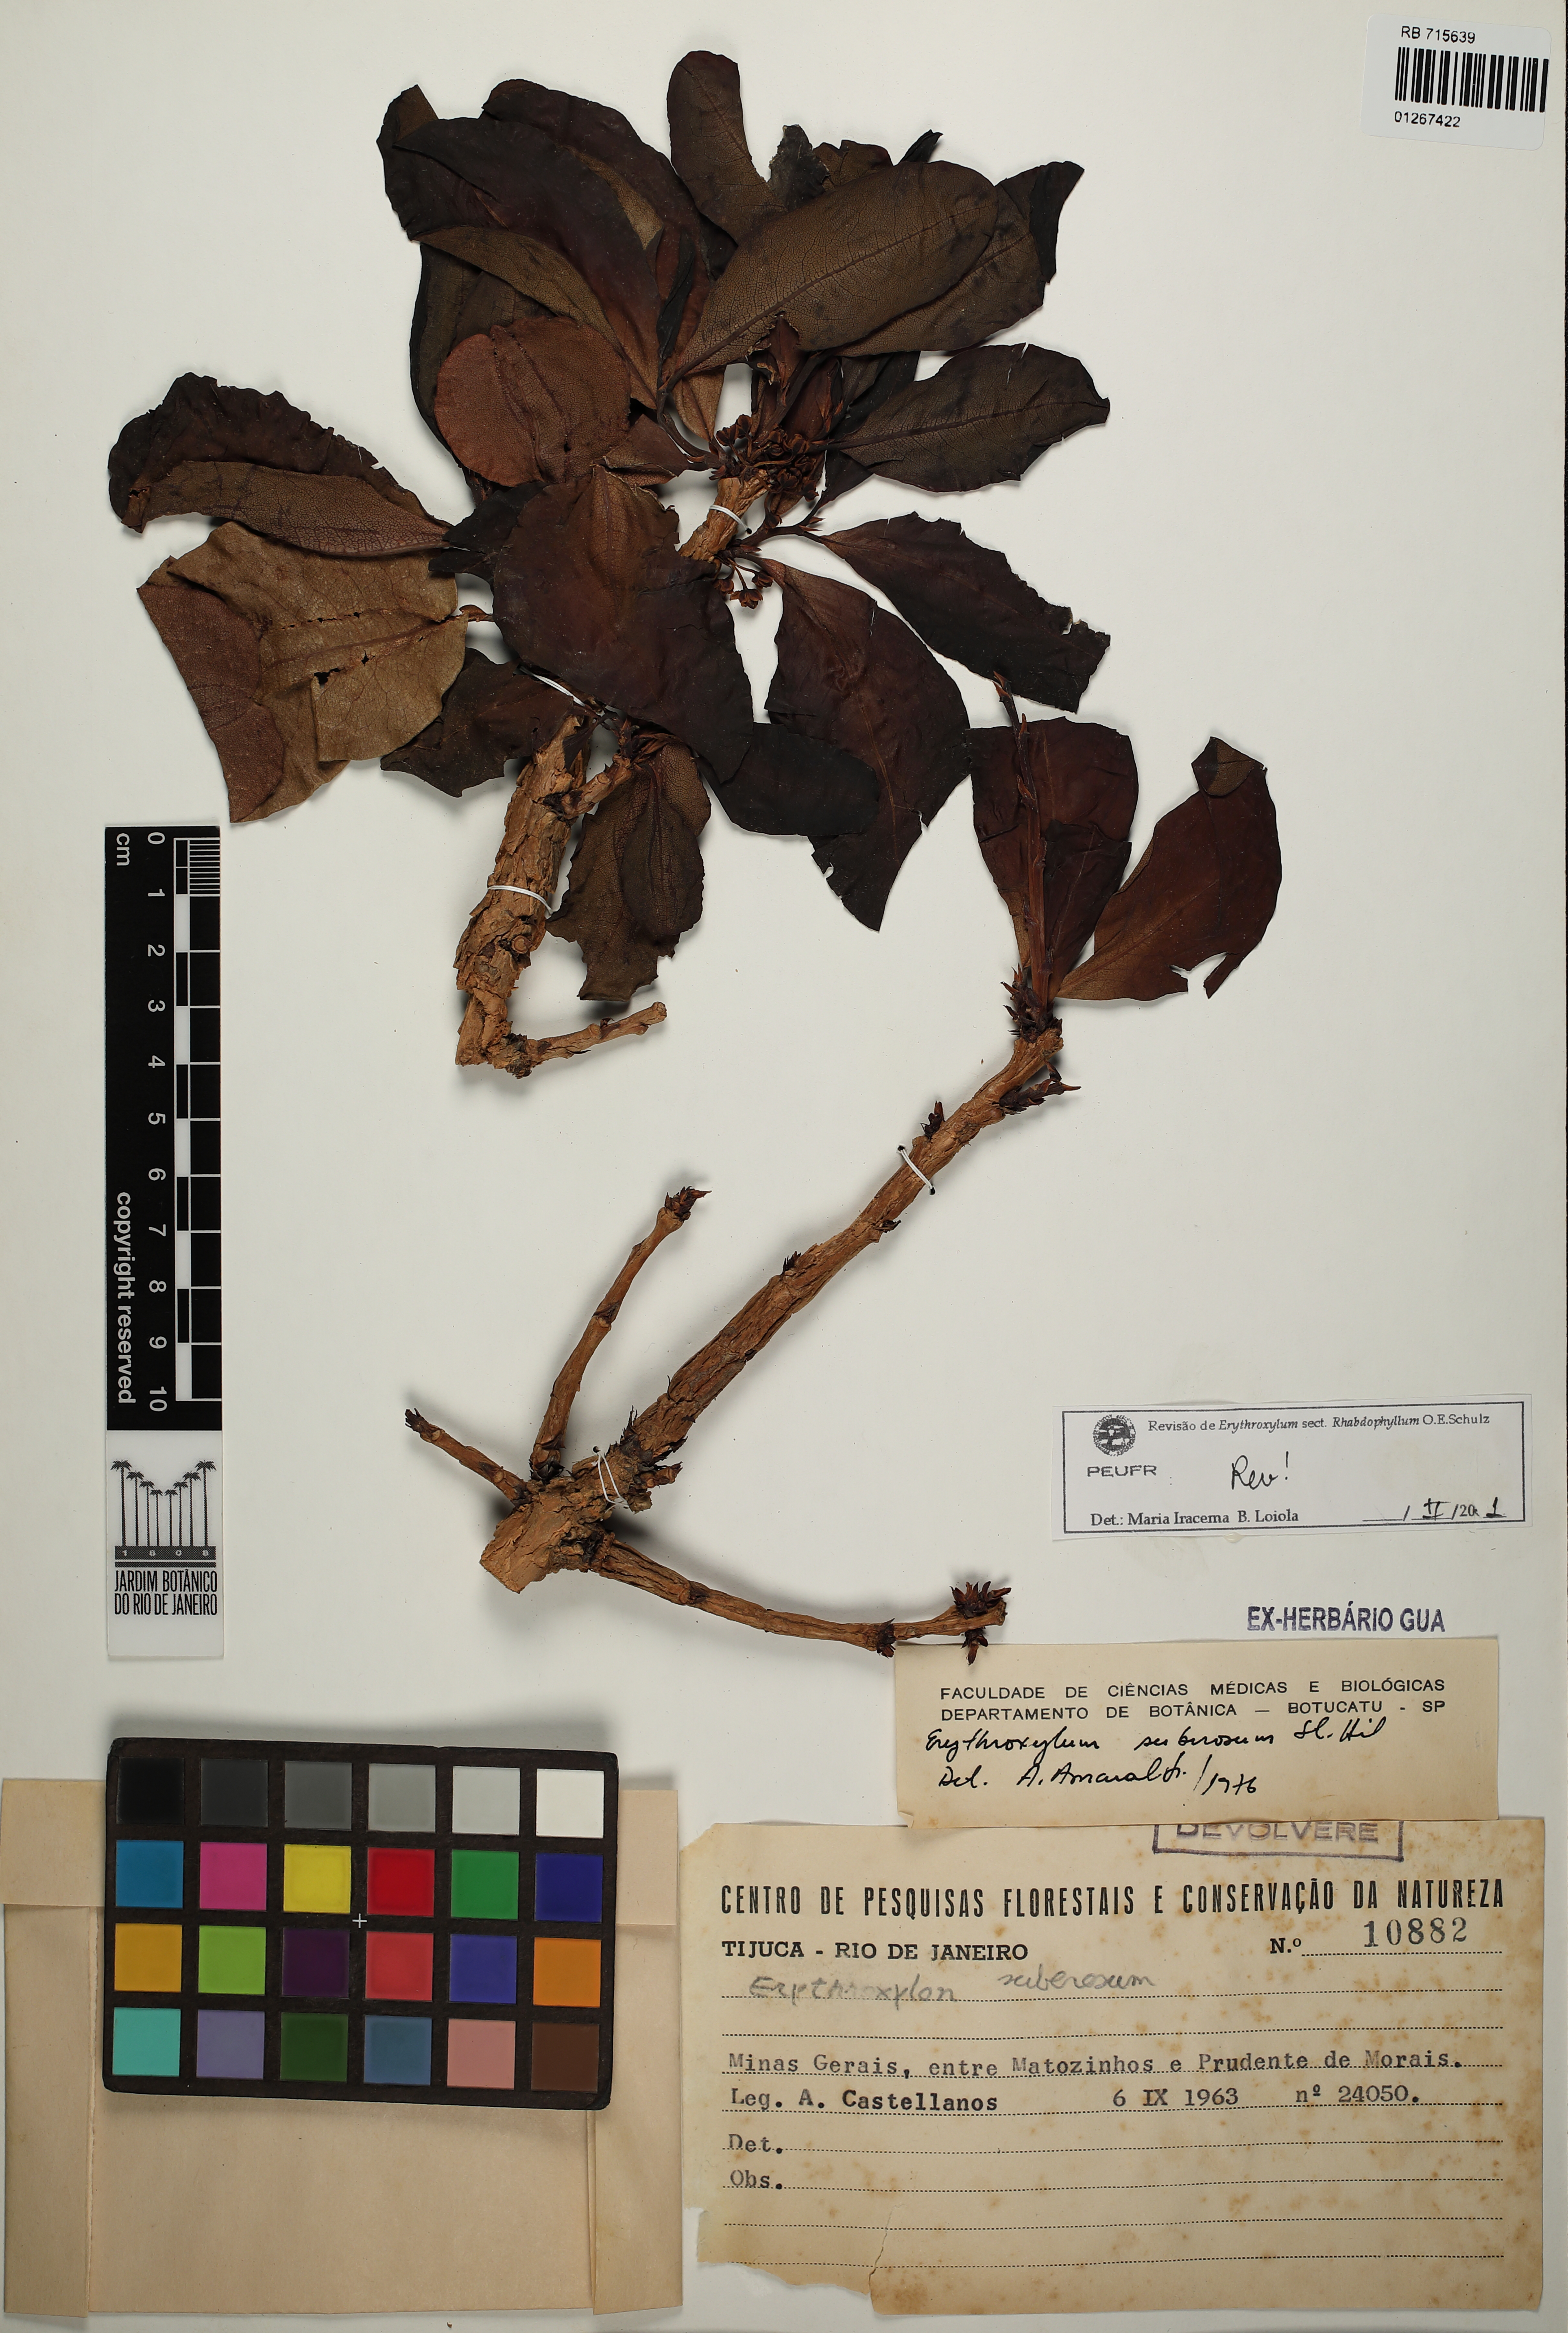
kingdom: Plantae
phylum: Tracheophyta
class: Magnoliopsida
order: Malpighiales
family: Erythroxylaceae
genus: Erythroxylum
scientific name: Erythroxylum suberosum
